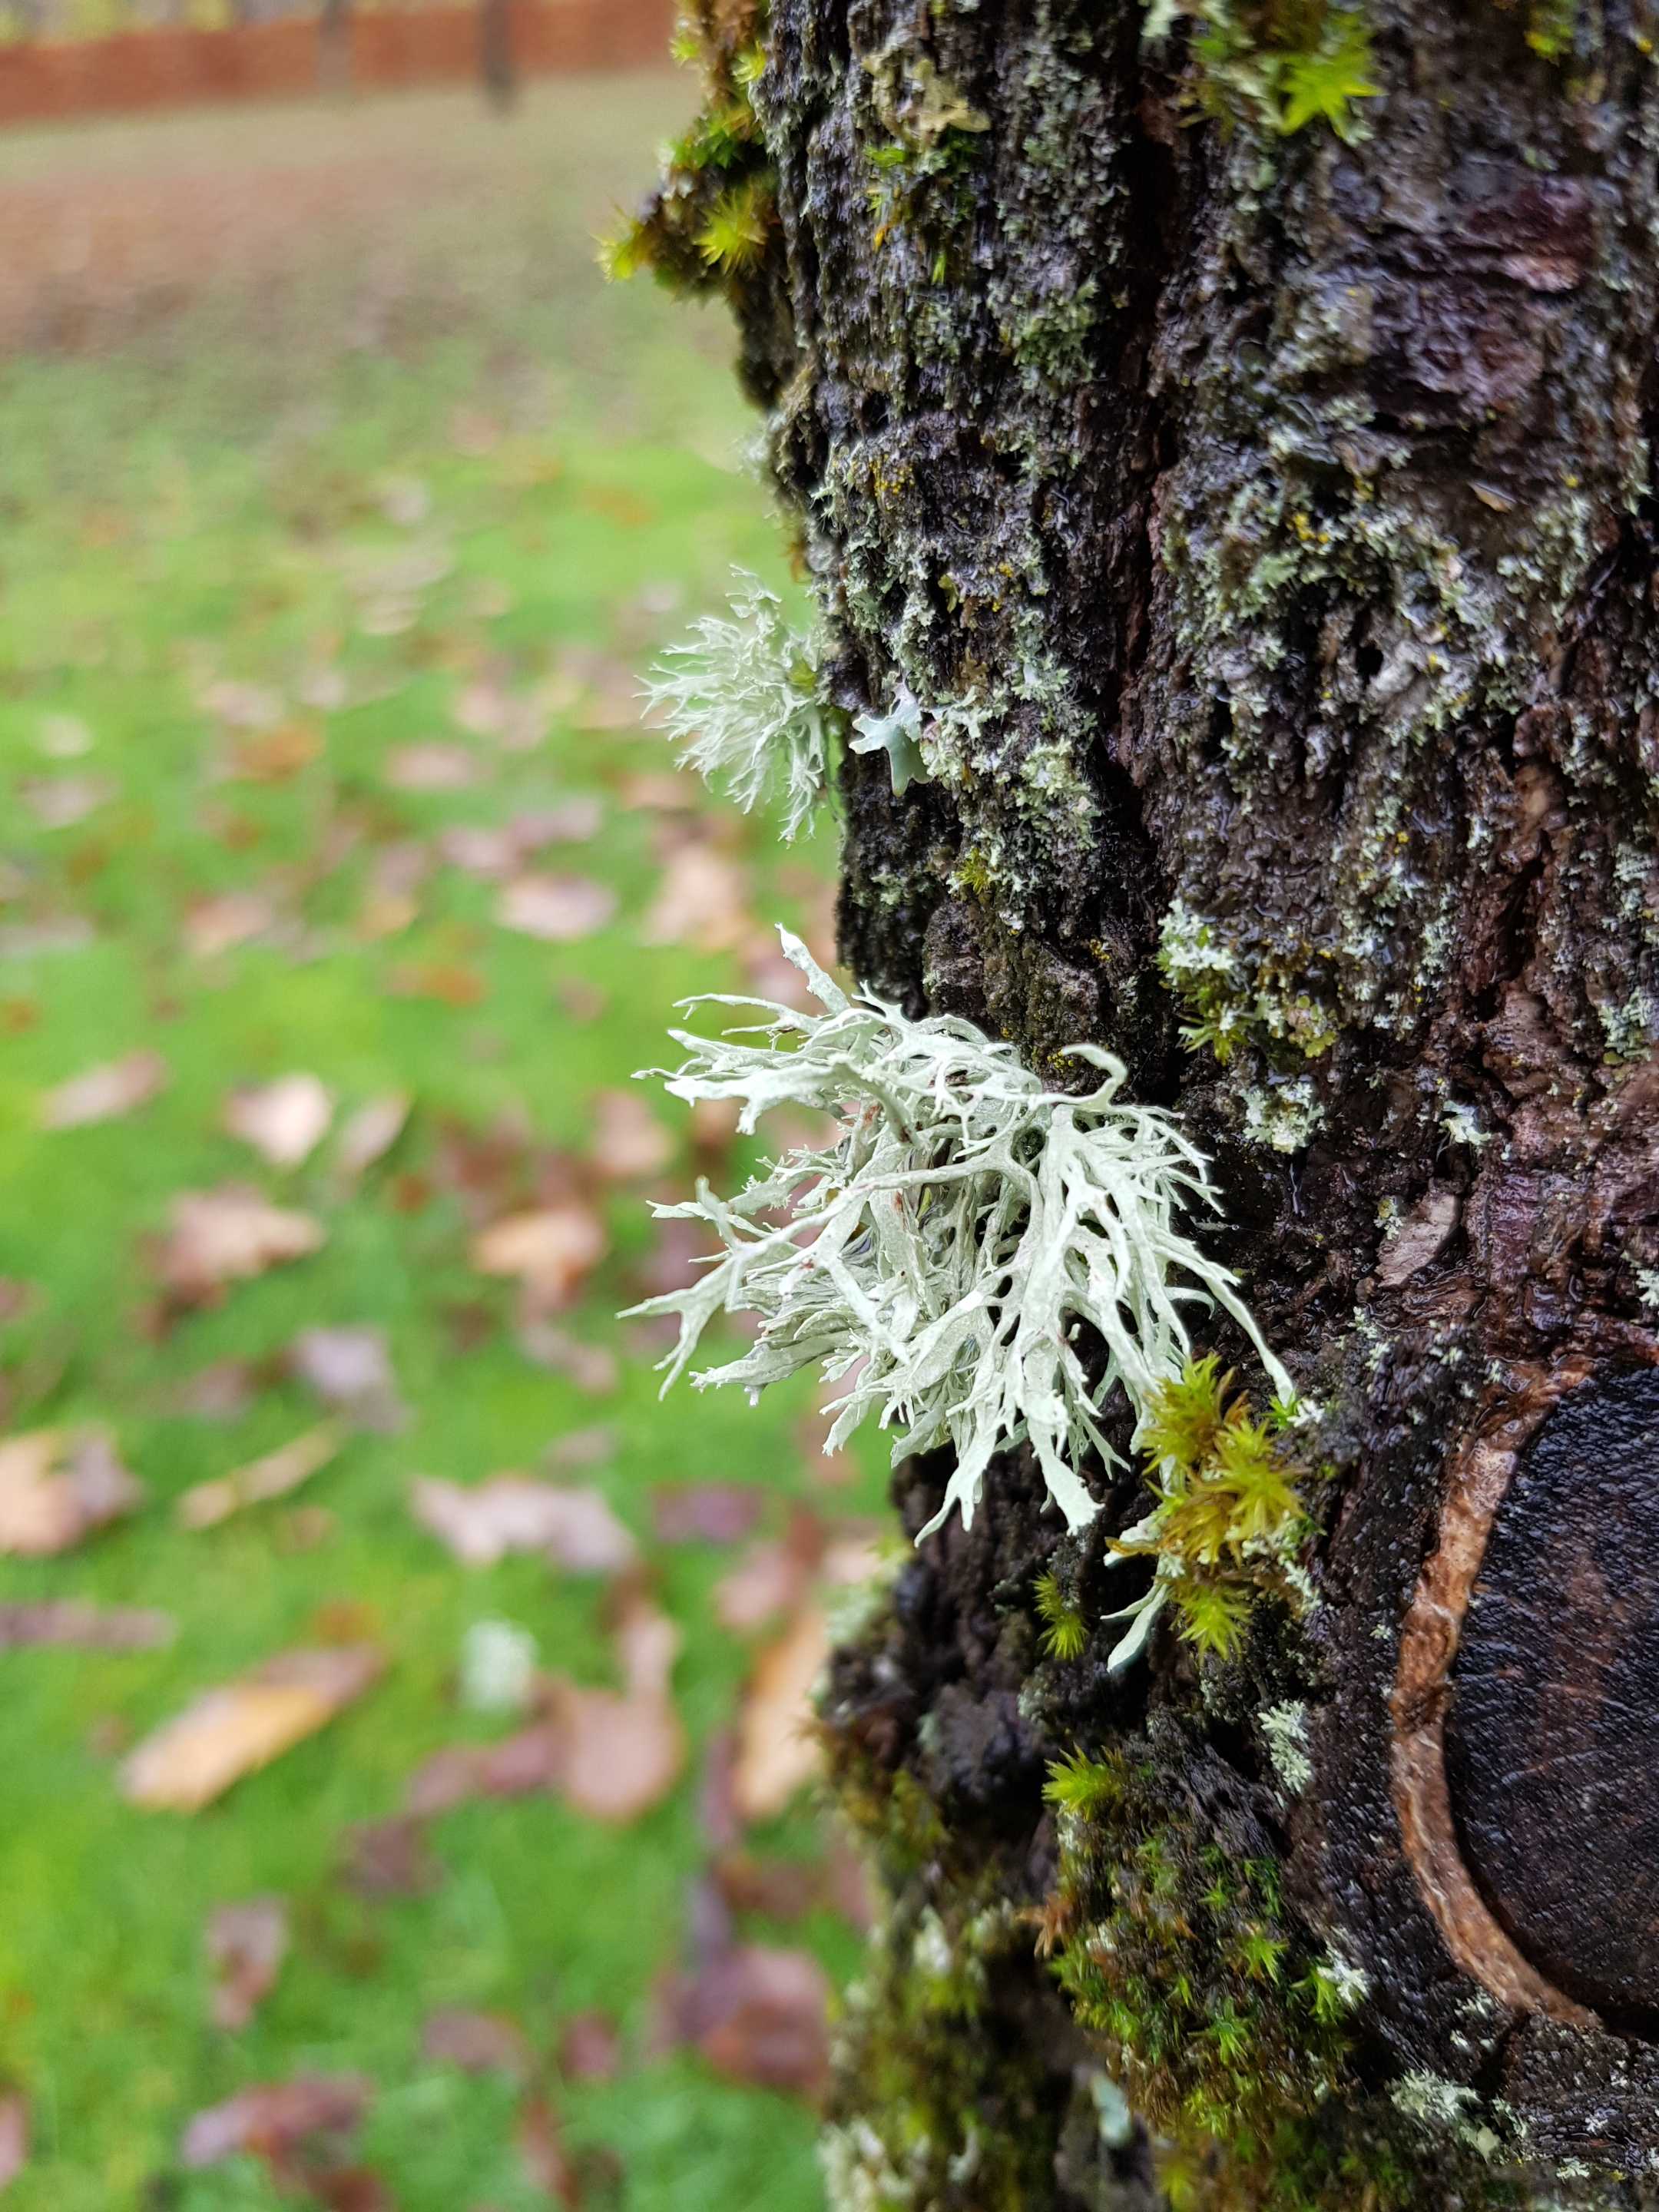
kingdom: Fungi
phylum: Ascomycota
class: Lecanoromycetes
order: Lecanorales
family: Parmeliaceae
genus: Evernia
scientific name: Evernia prunastri
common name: almindelig slåenlav
